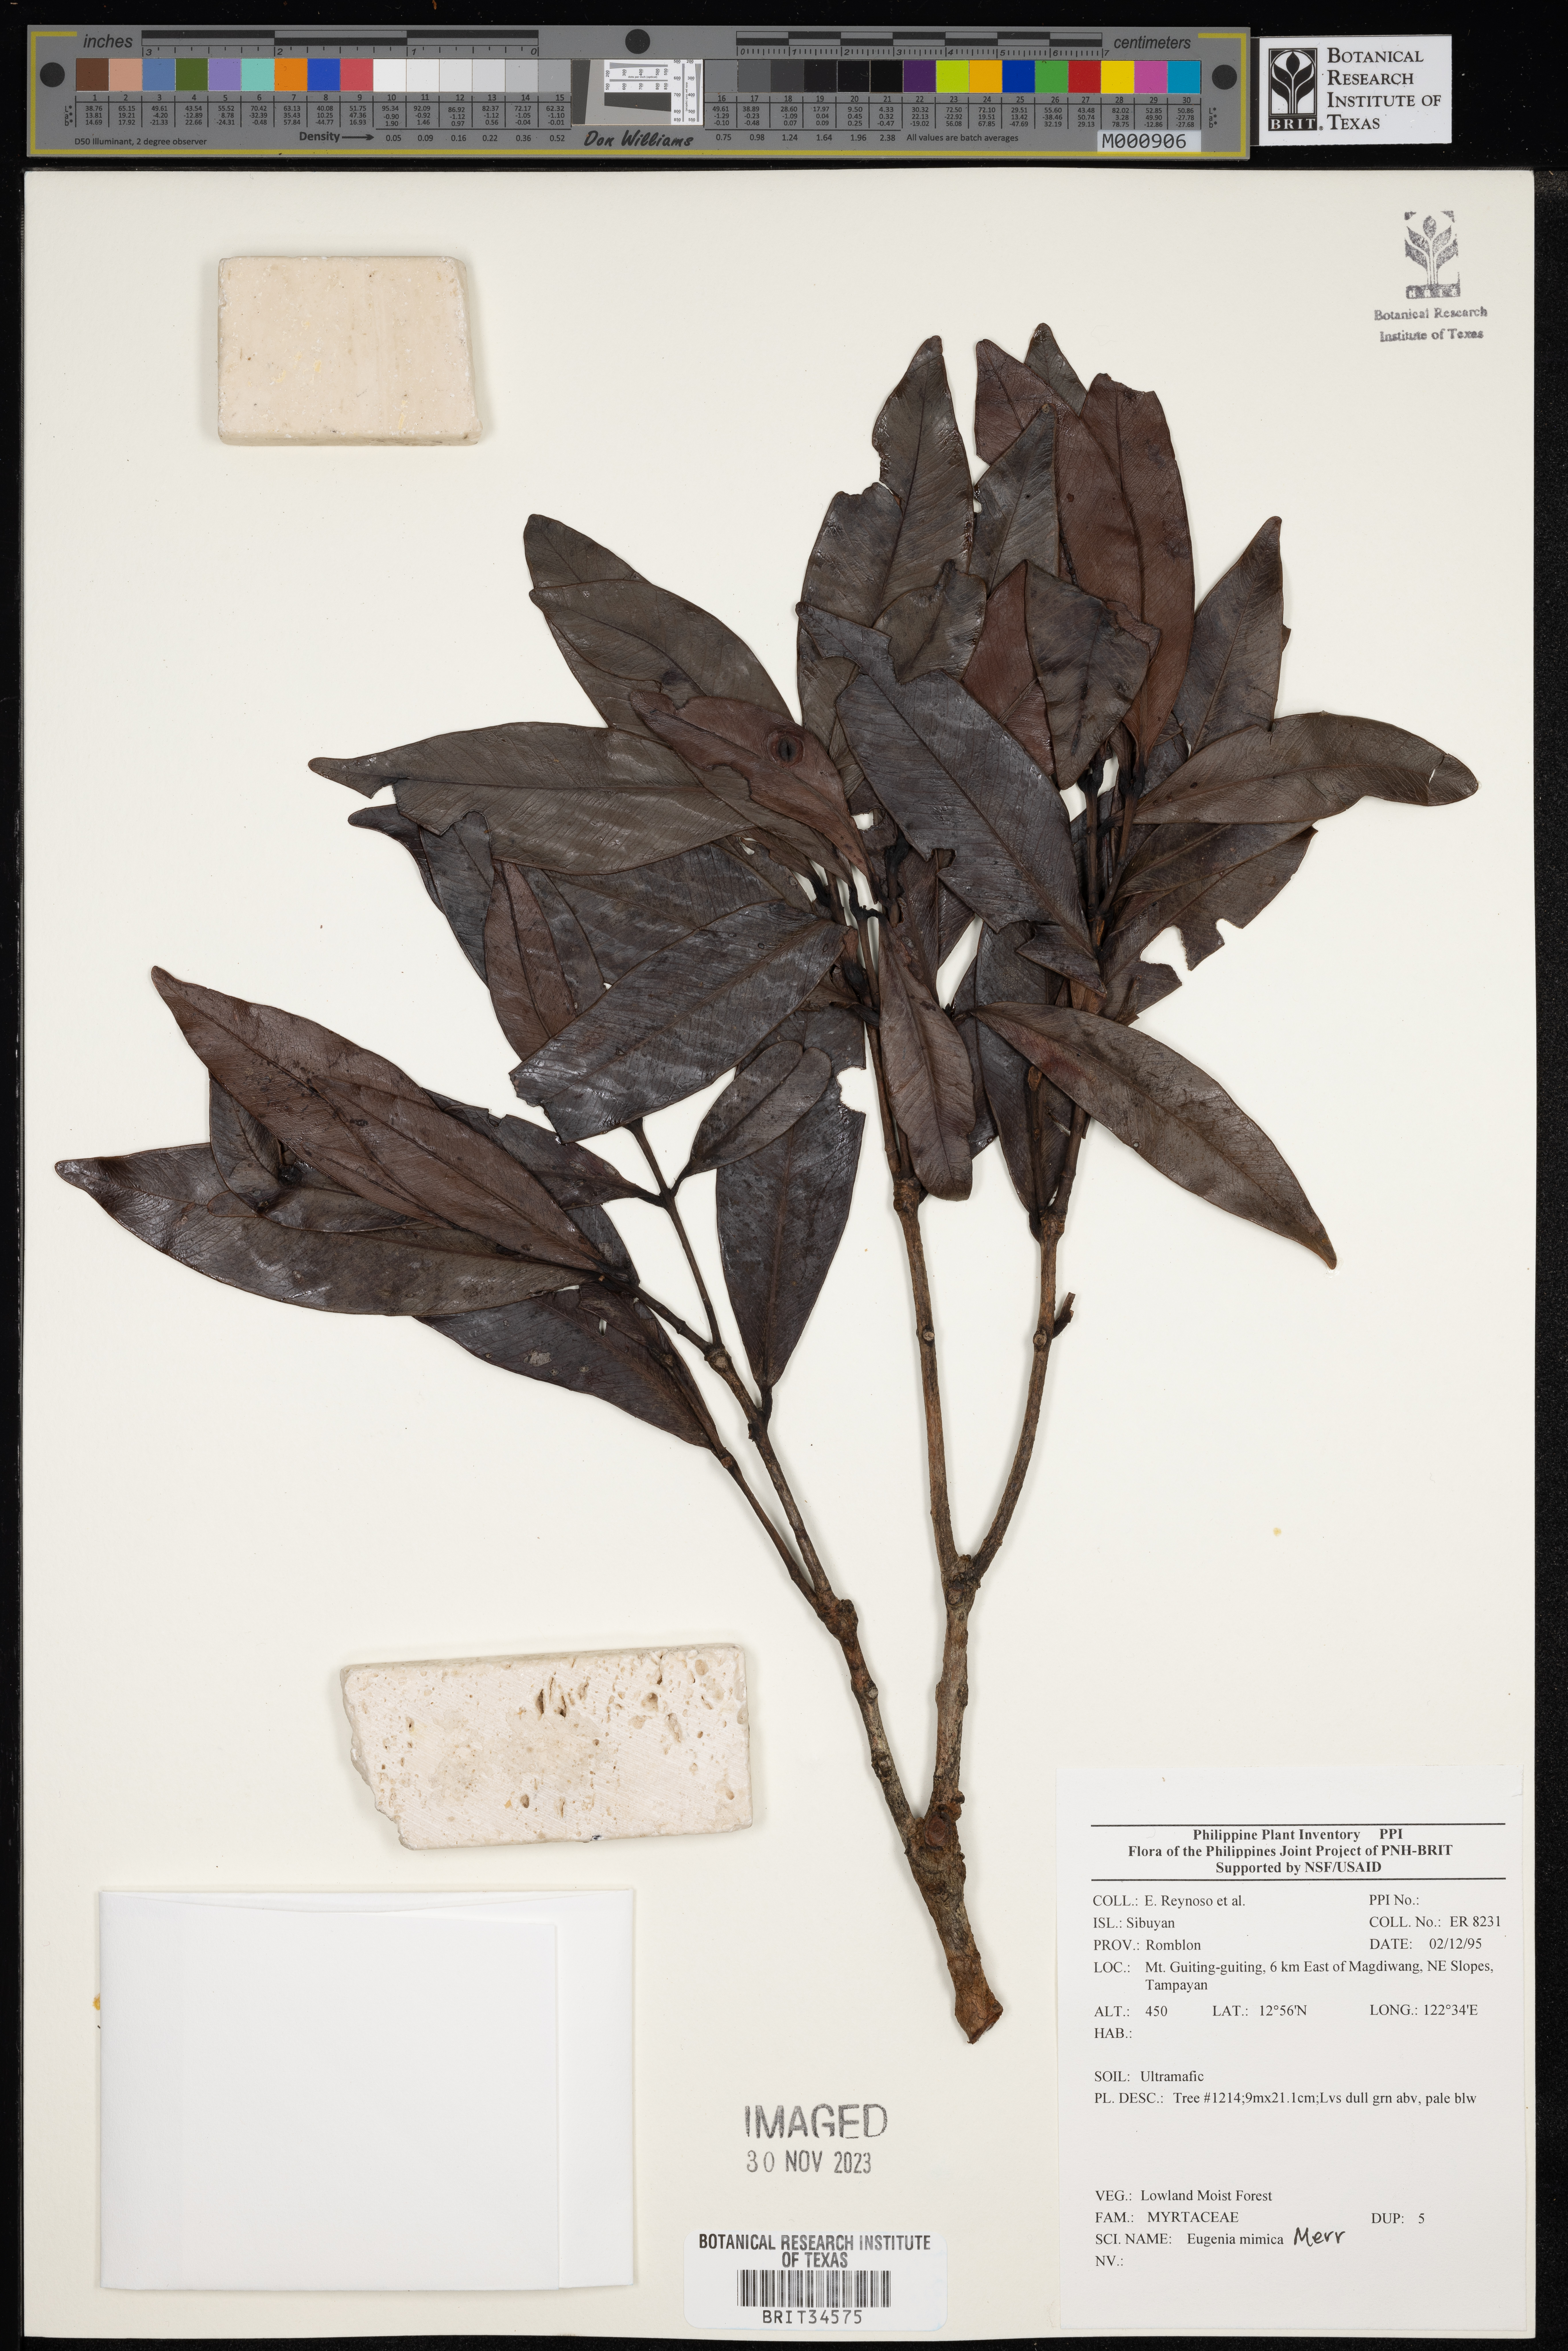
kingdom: Plantae
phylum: Tracheophyta
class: Magnoliopsida
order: Myrtales
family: Myrtaceae
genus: Eugenia
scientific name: Eugenia
